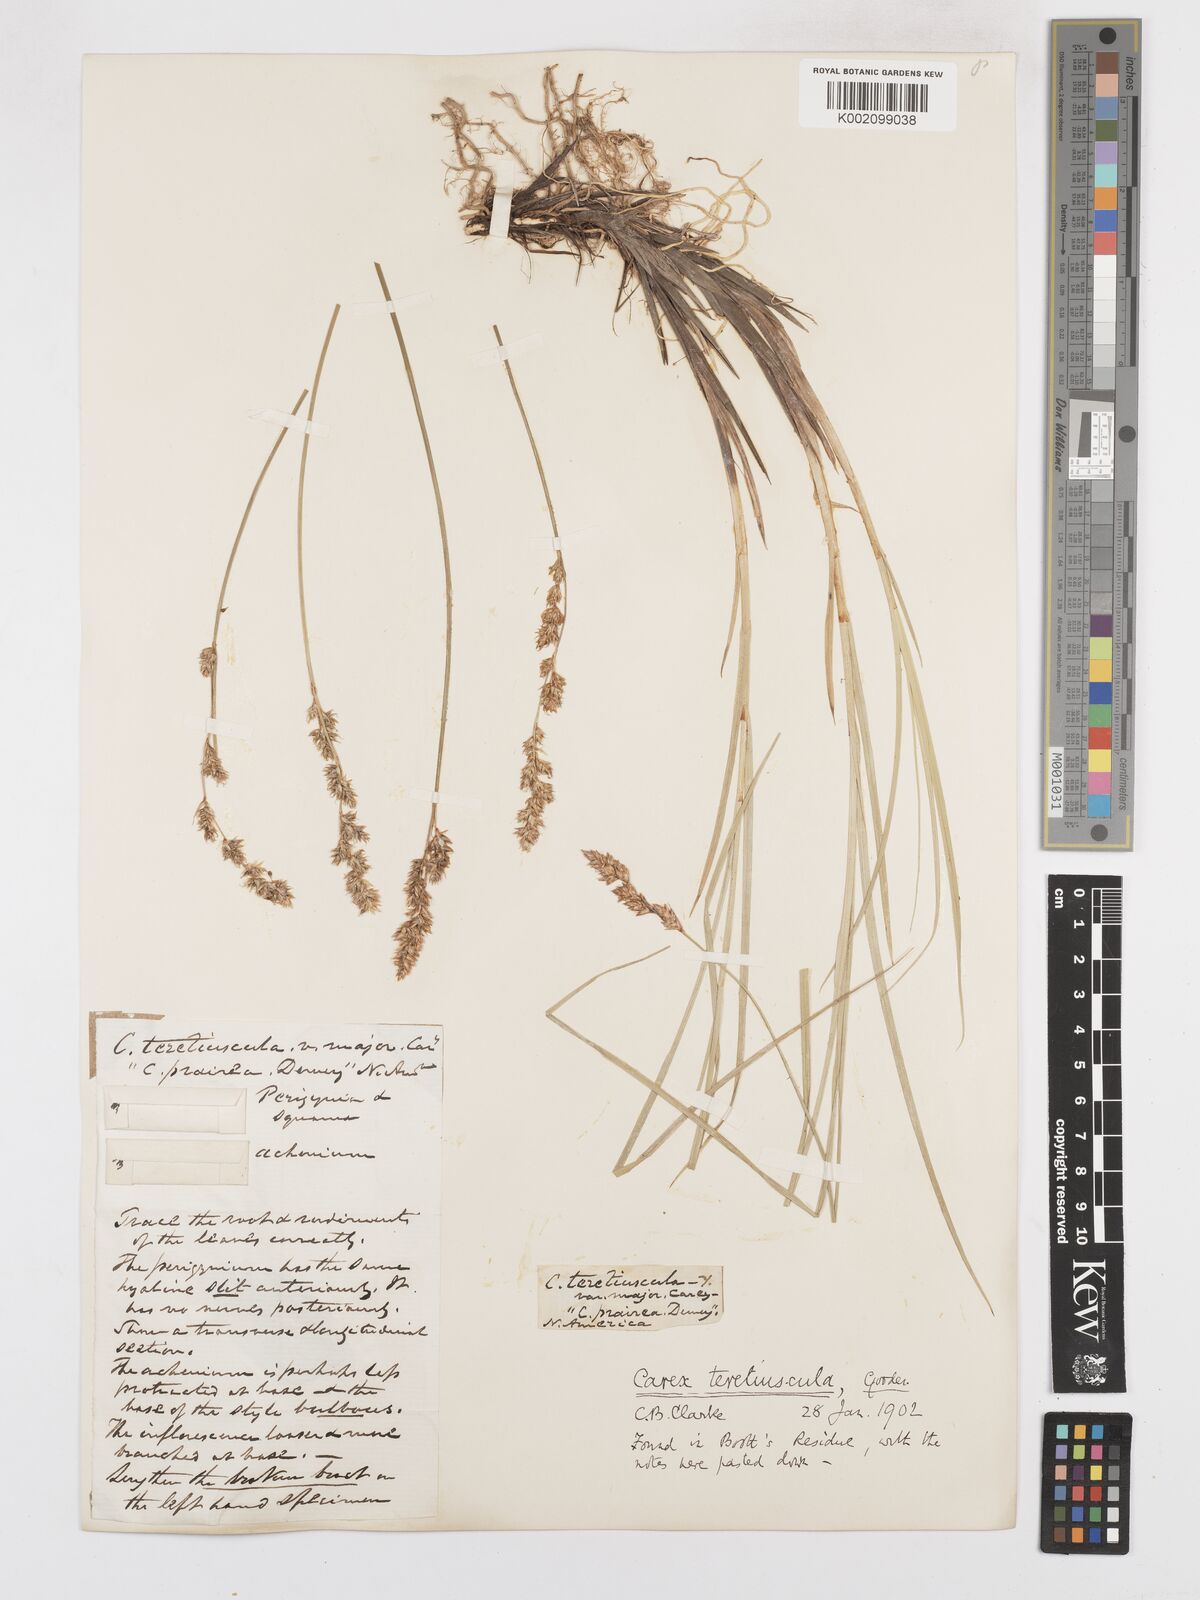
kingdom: Plantae
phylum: Tracheophyta
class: Liliopsida
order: Poales
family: Cyperaceae
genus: Carex
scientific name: Carex diandra
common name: Lesser tussock-sedge
